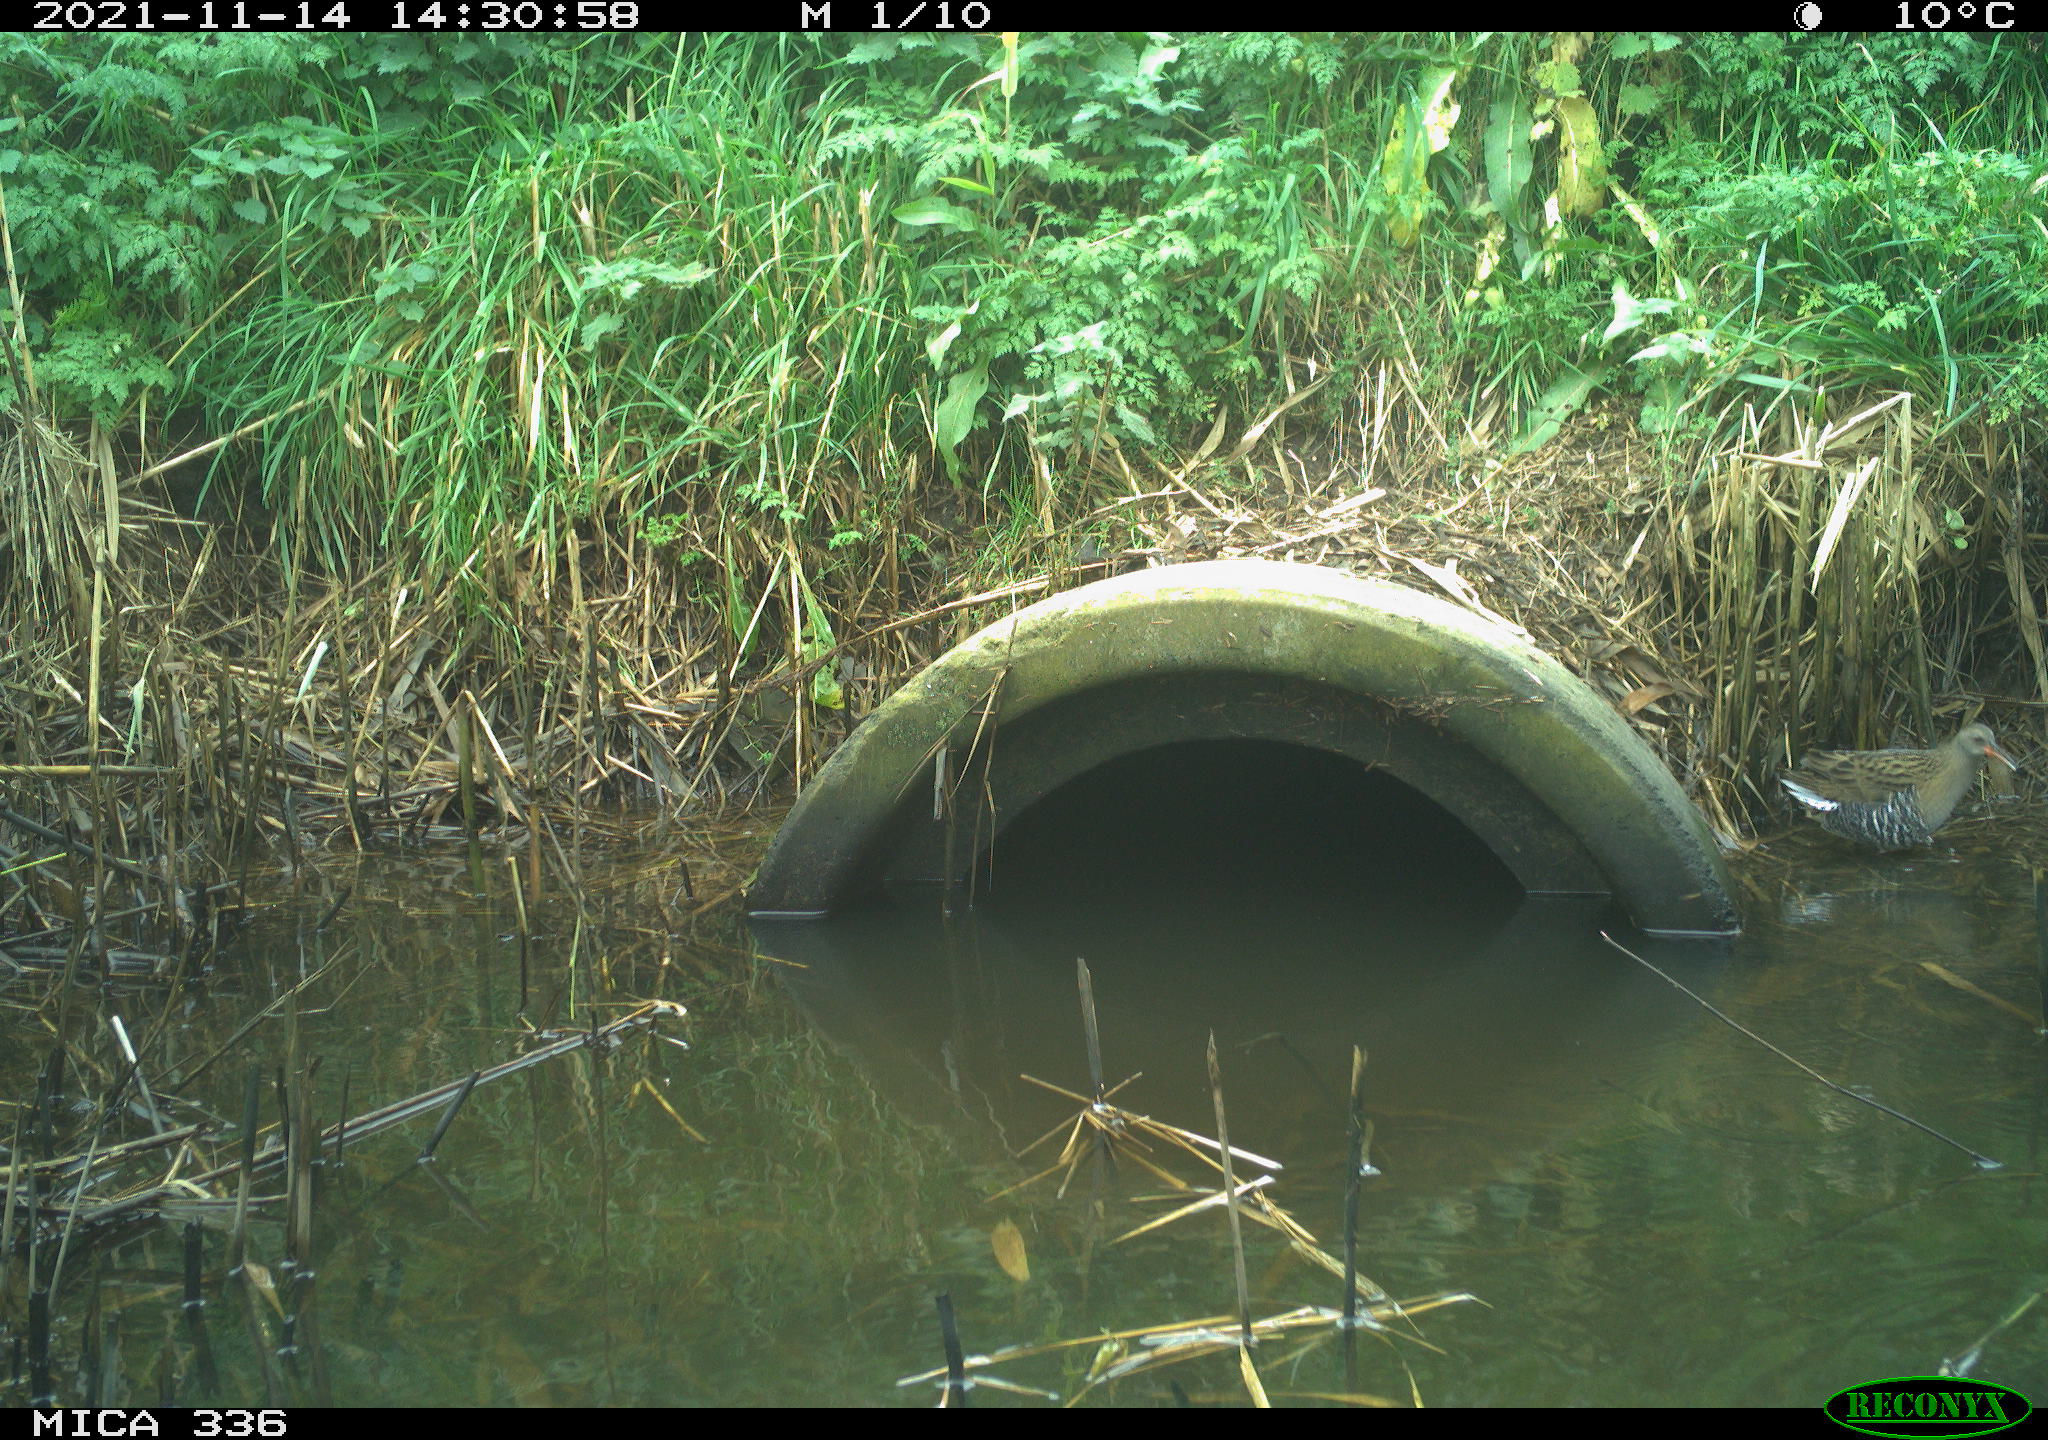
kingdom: Animalia
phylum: Chordata
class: Aves
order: Gruiformes
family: Rallidae
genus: Gallinula
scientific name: Gallinula chloropus
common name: Common moorhen
